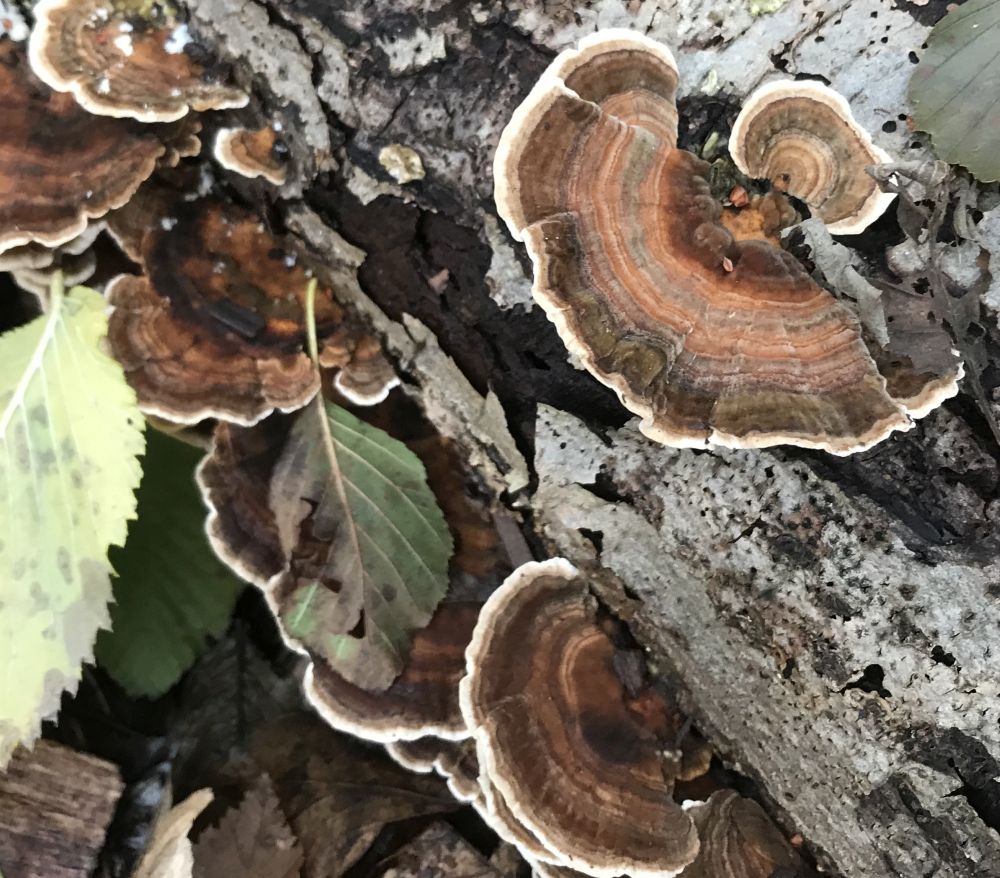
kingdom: Fungi
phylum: Basidiomycota
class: Agaricomycetes
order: Russulales
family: Stereaceae
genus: Stereum
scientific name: Stereum subtomentosum
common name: smuk lædersvamp
